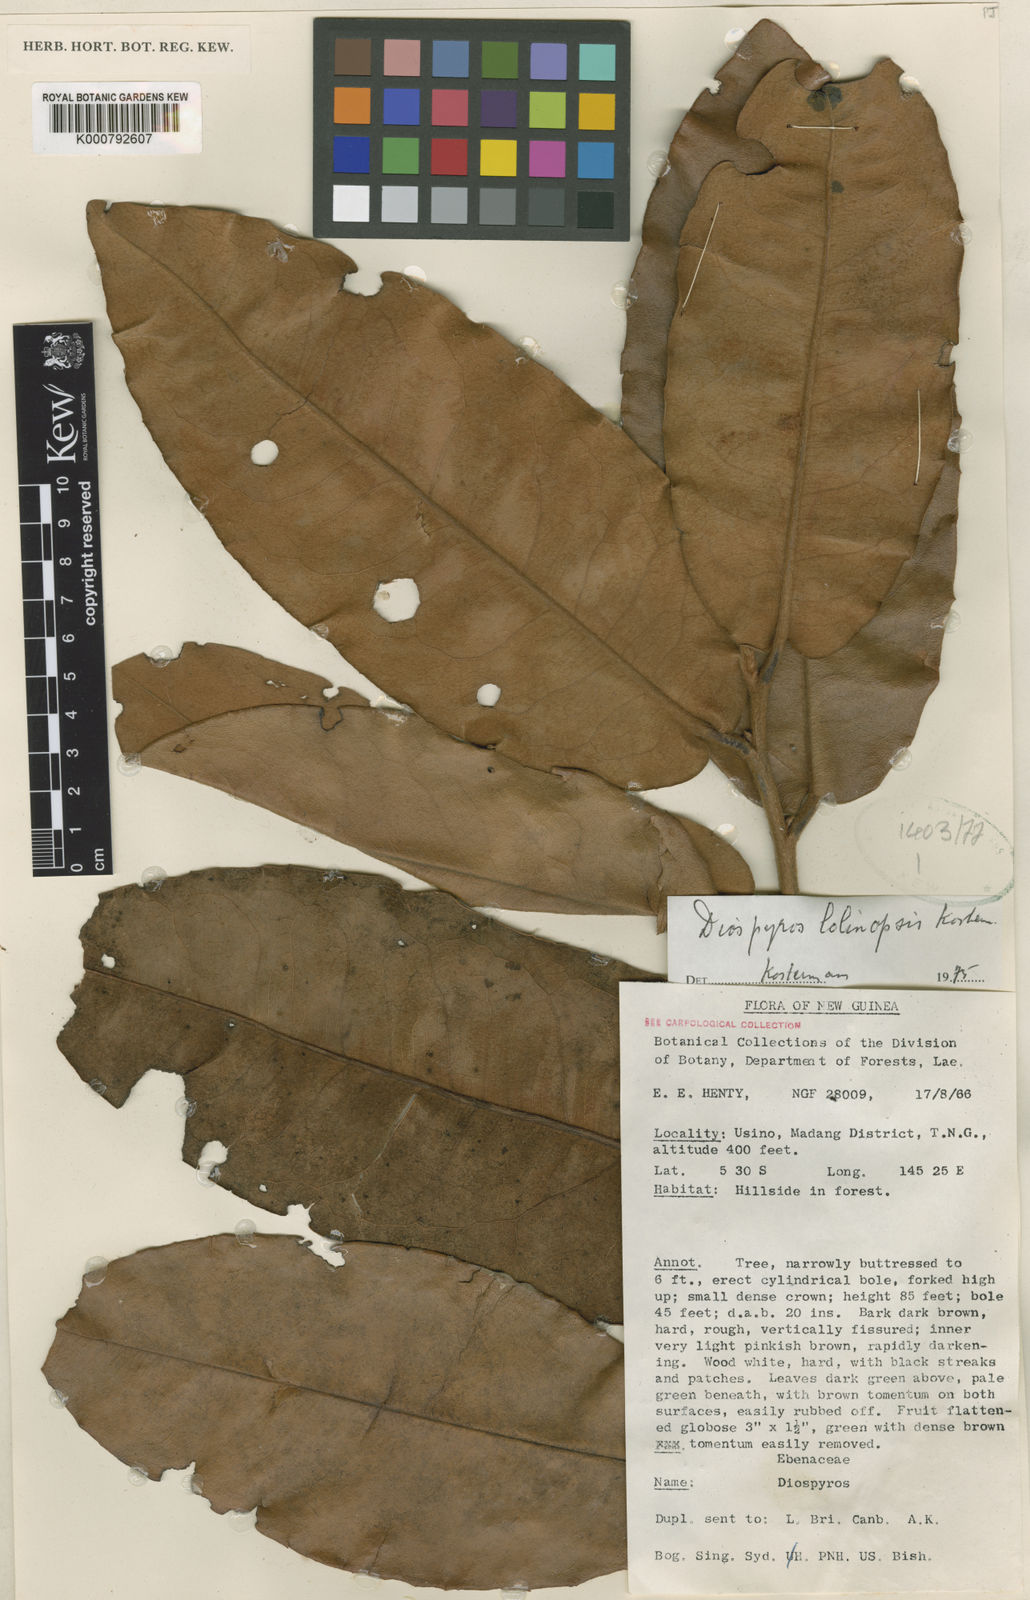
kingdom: Plantae
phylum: Tracheophyta
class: Magnoliopsida
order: Ericales
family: Ebenaceae
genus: Diospyros
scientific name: Diospyros lolinopsis
